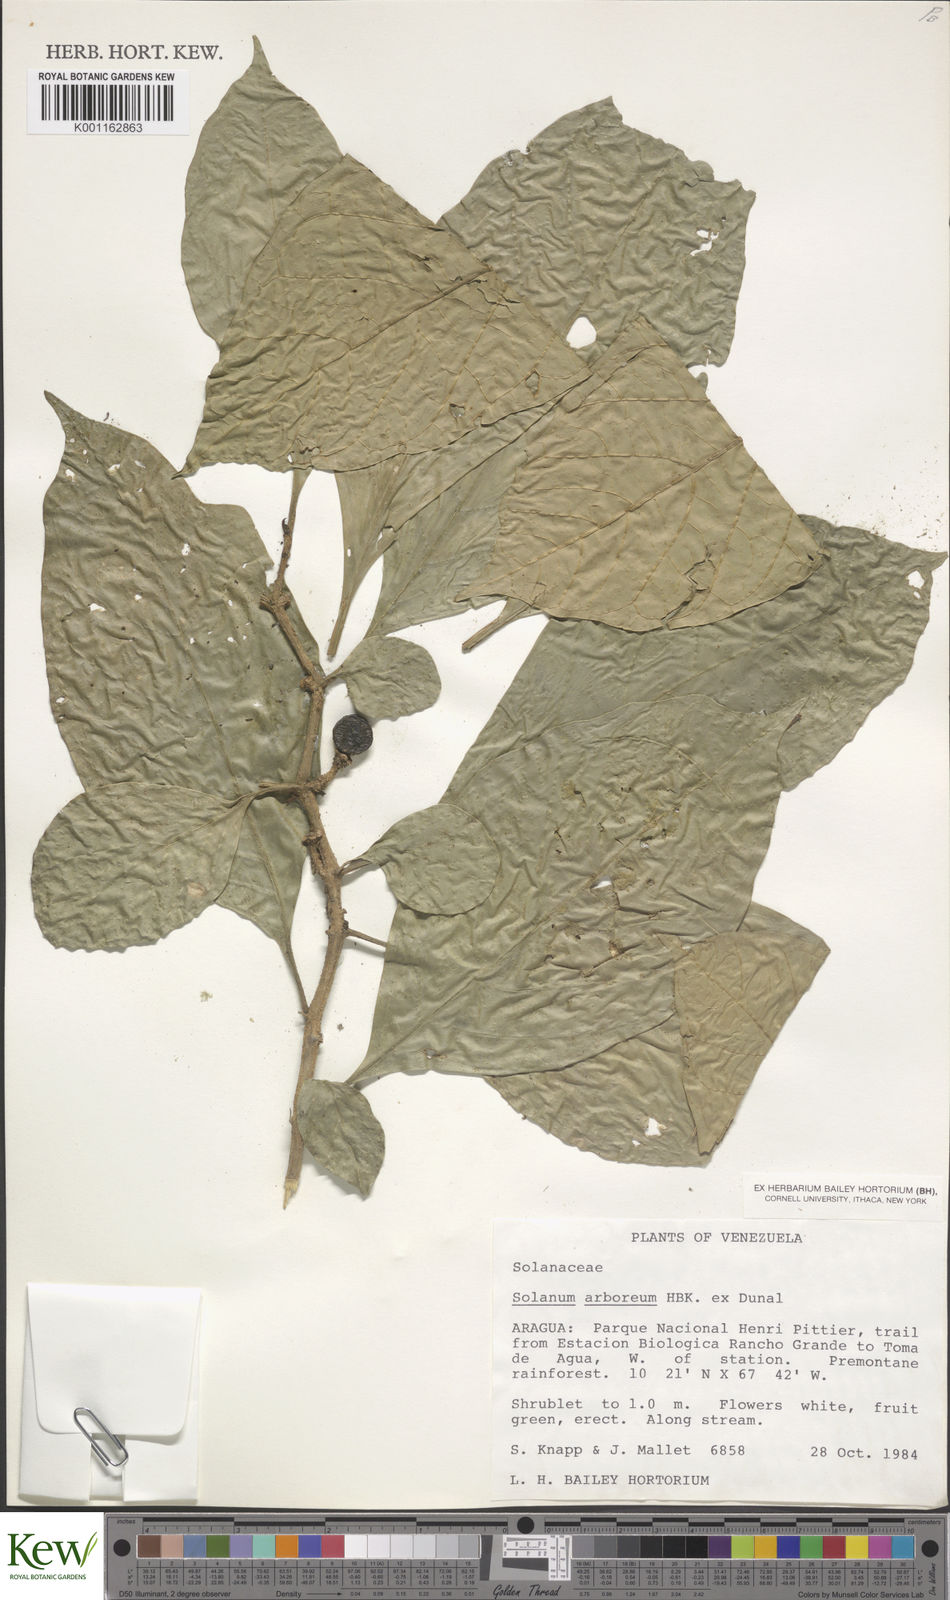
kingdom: Plantae
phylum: Tracheophyta
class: Magnoliopsida
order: Solanales
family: Solanaceae
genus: Solanum
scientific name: Solanum arboreum
